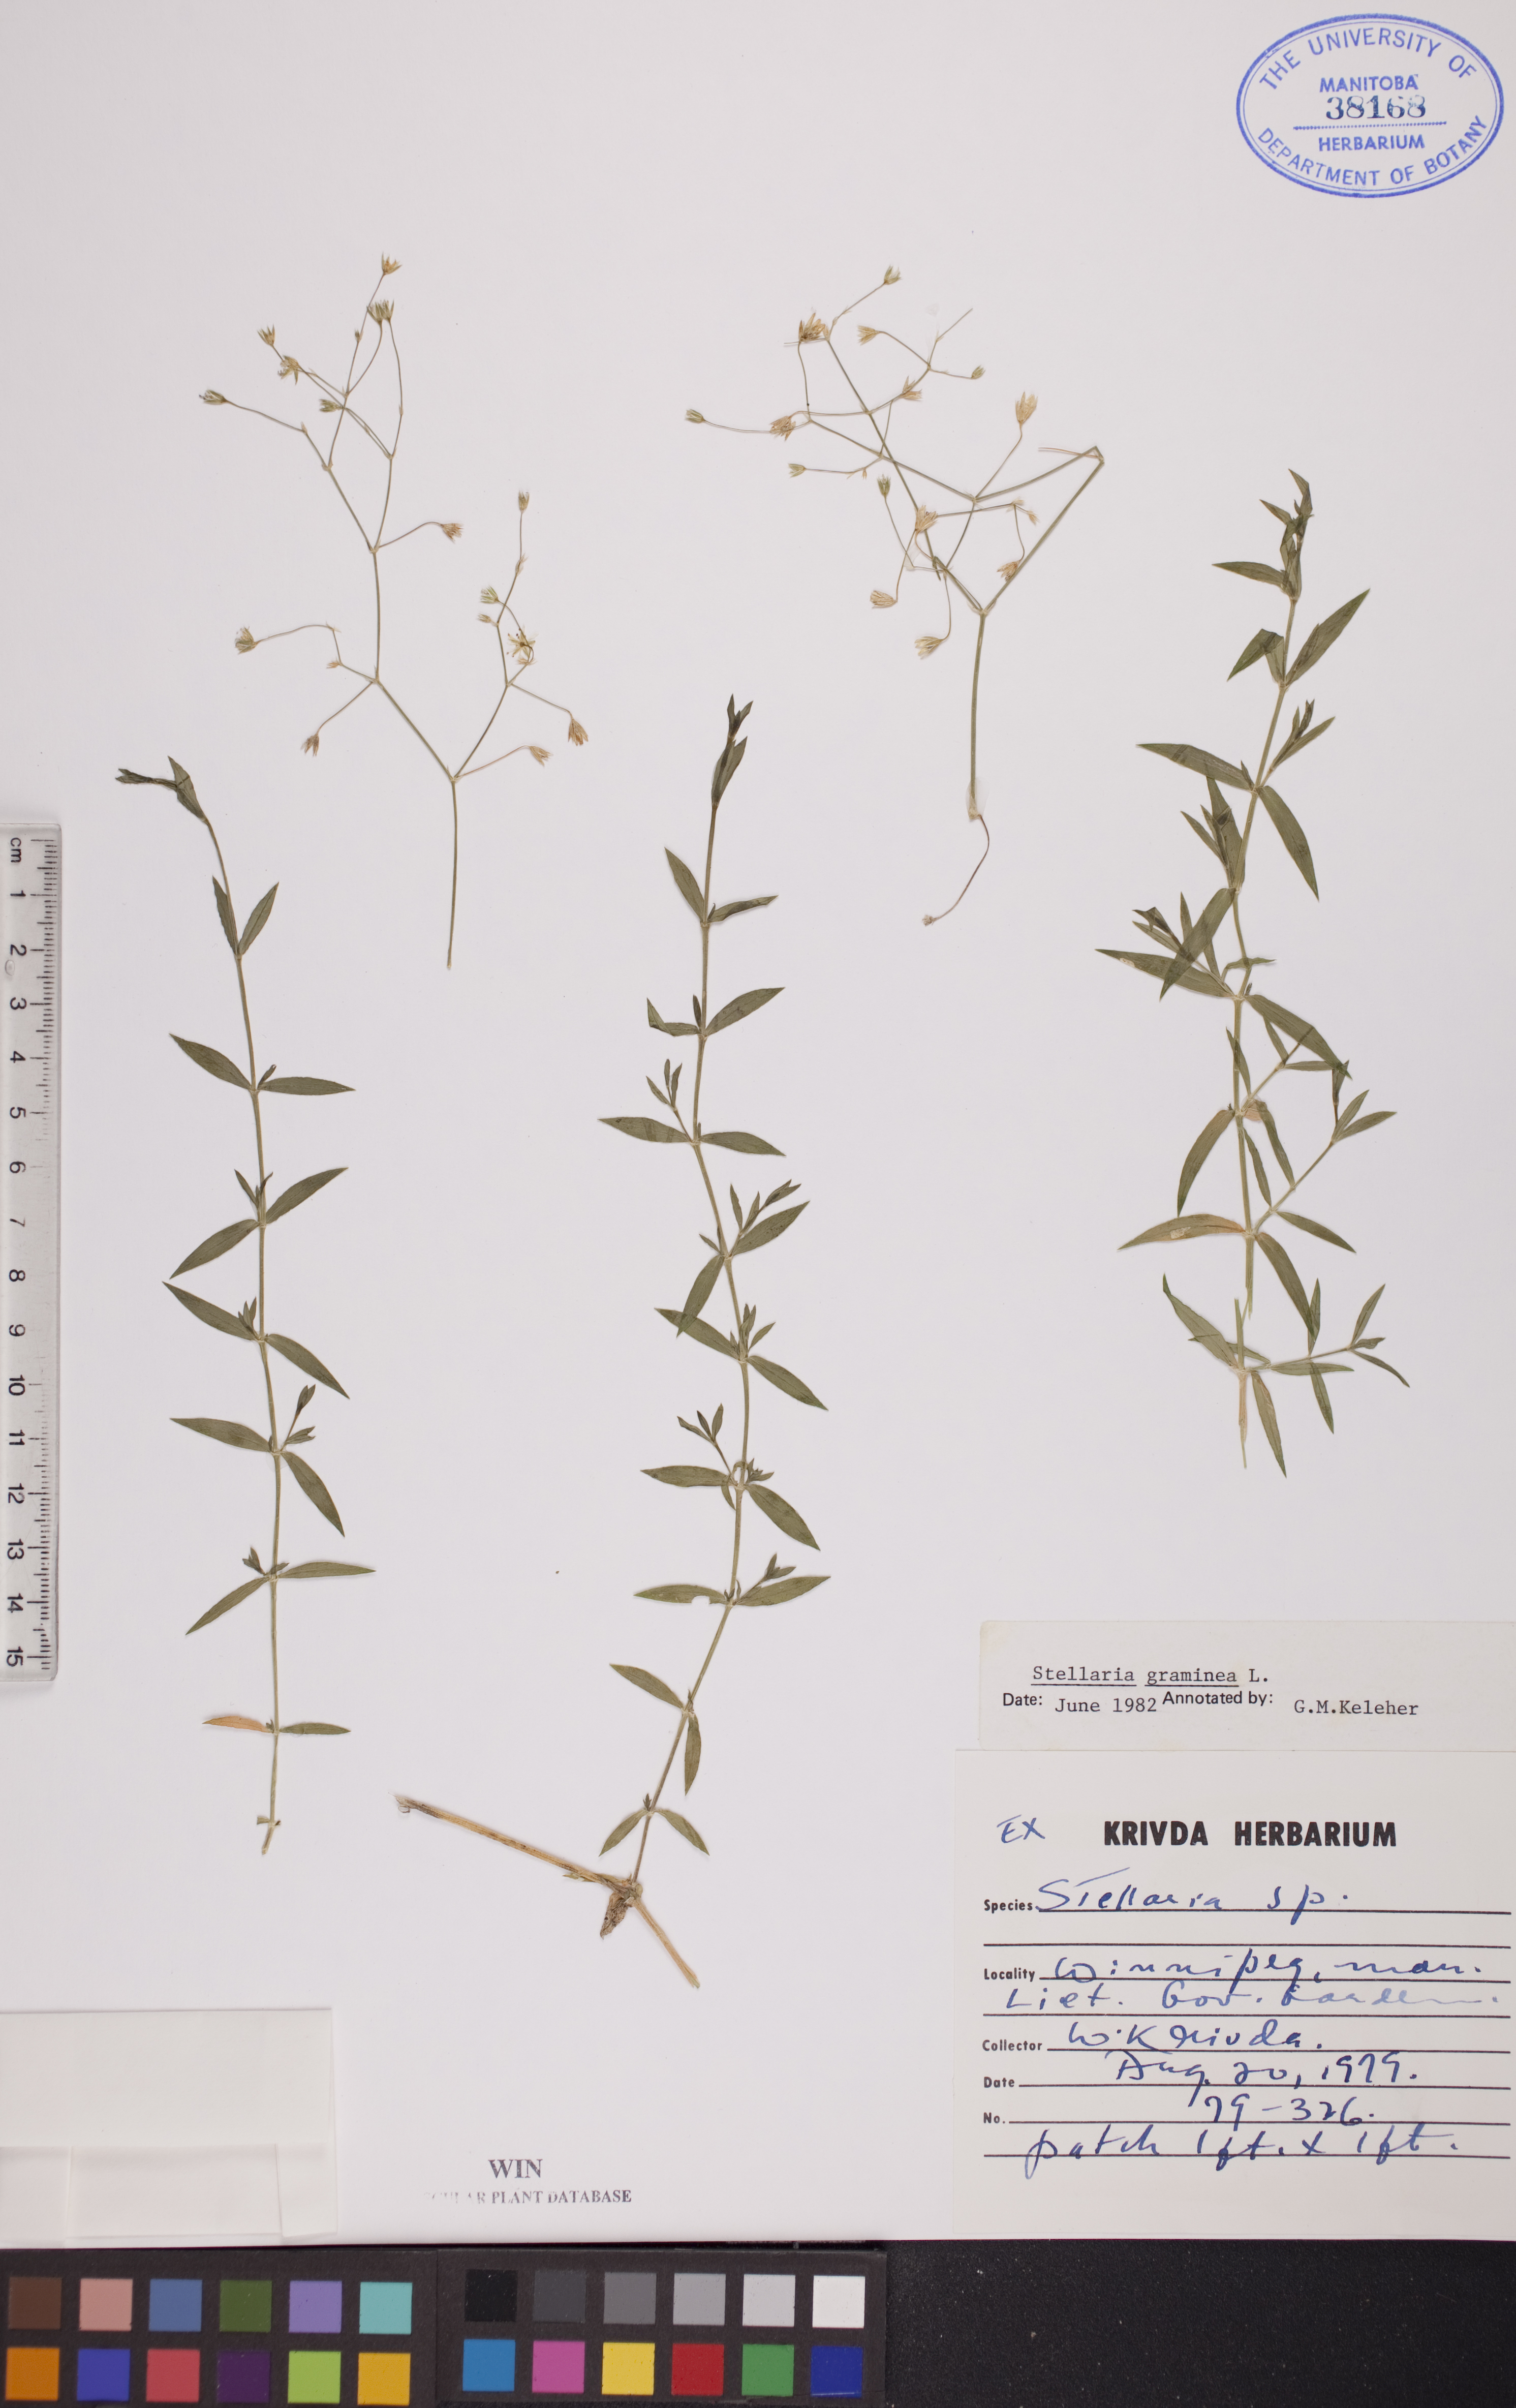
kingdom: Plantae
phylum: Tracheophyta
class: Magnoliopsida
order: Caryophyllales
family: Caryophyllaceae
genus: Stellaria
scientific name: Stellaria graminea
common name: Grass-like starwort
